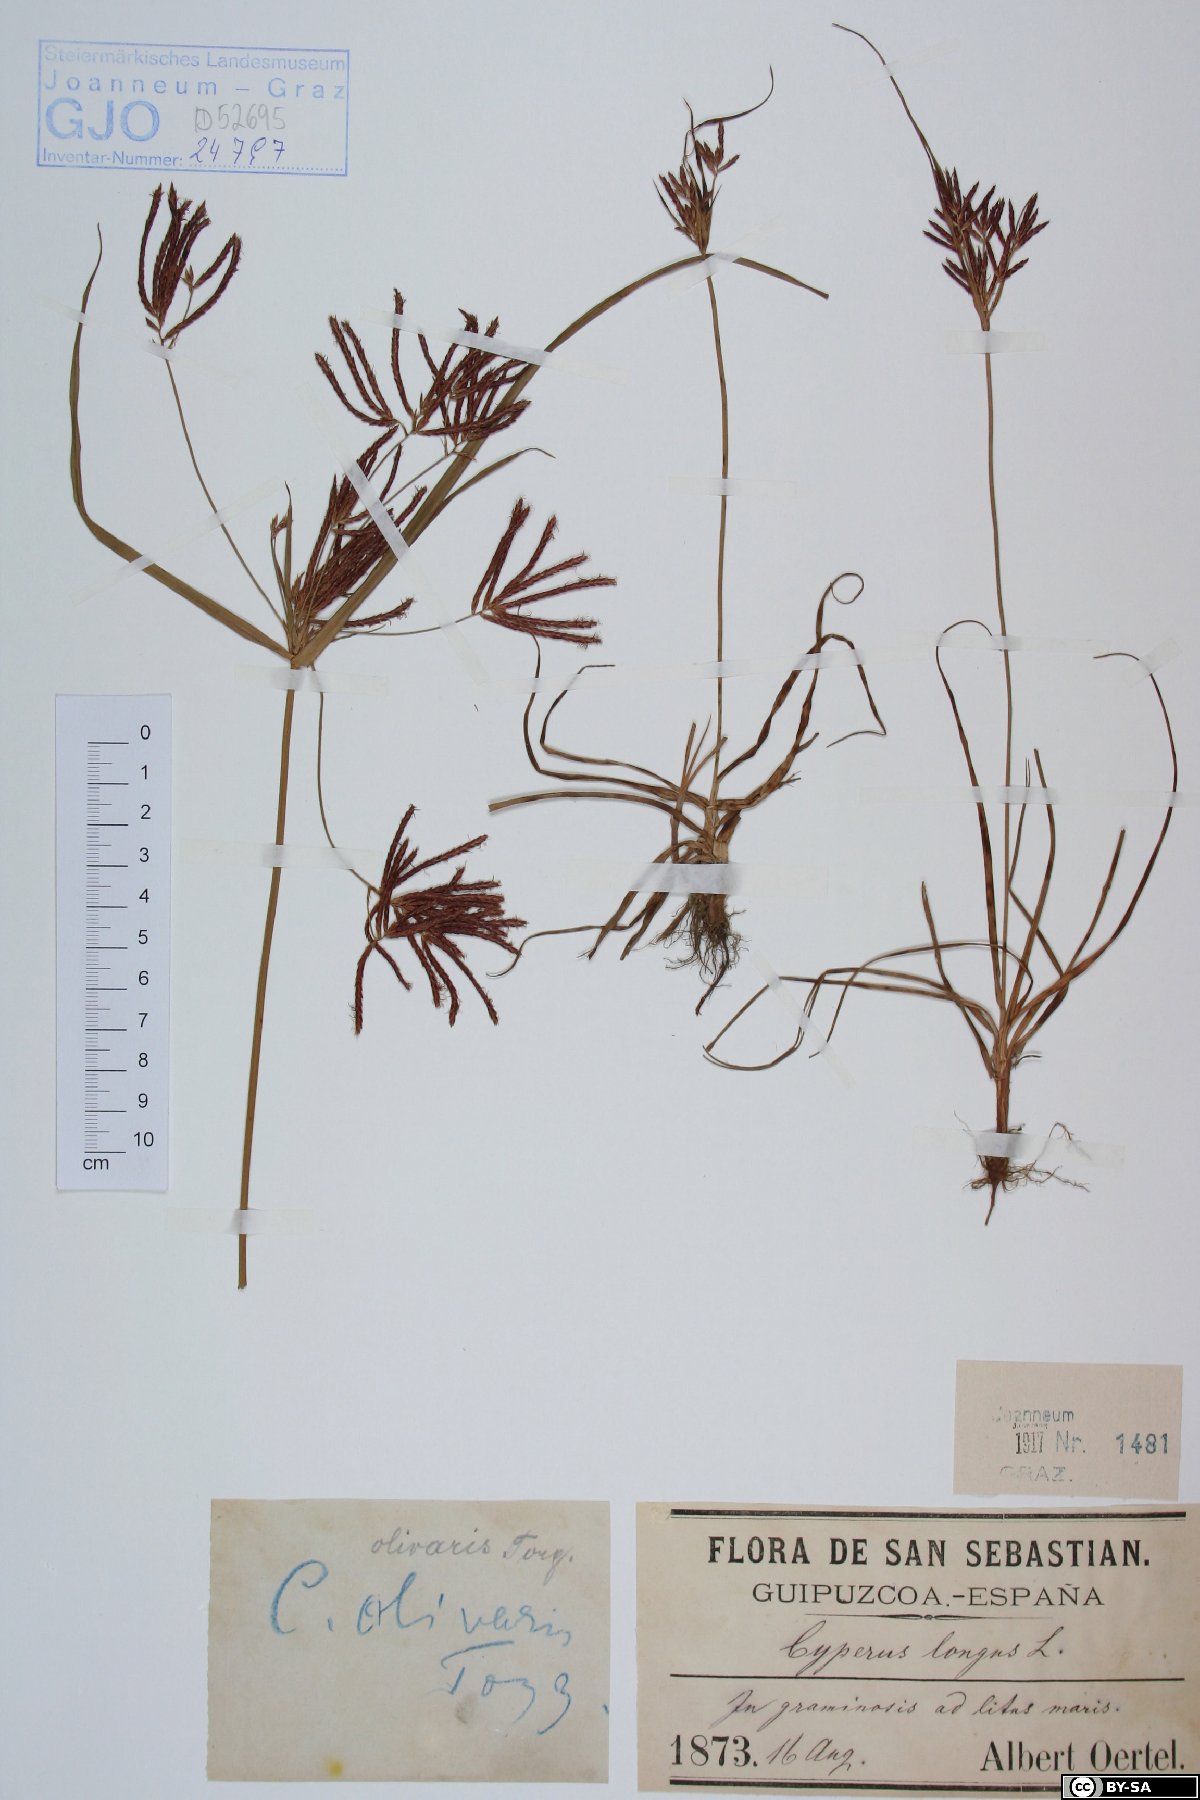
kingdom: Plantae
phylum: Tracheophyta
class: Liliopsida
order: Poales
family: Cyperaceae
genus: Cyperus
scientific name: Cyperus rotundus
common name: Nutgrass
